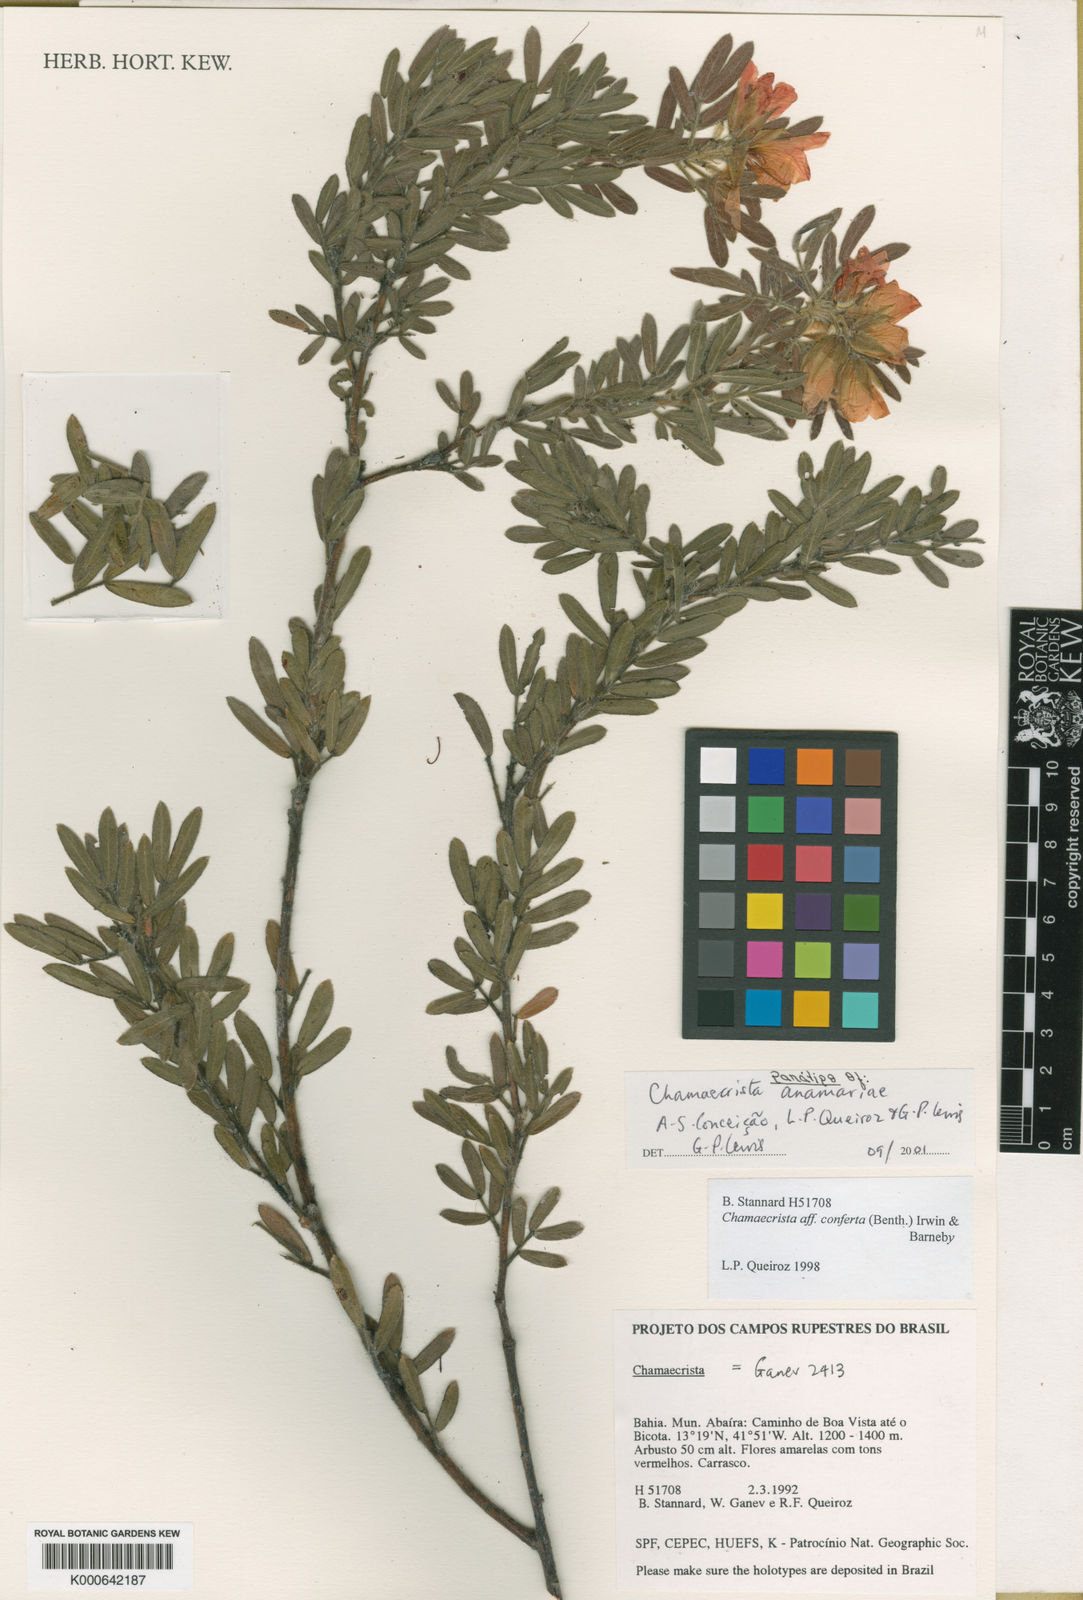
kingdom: Plantae
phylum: Tracheophyta
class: Magnoliopsida
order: Fabales
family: Fabaceae
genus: Chamaecrista
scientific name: Chamaecrista
